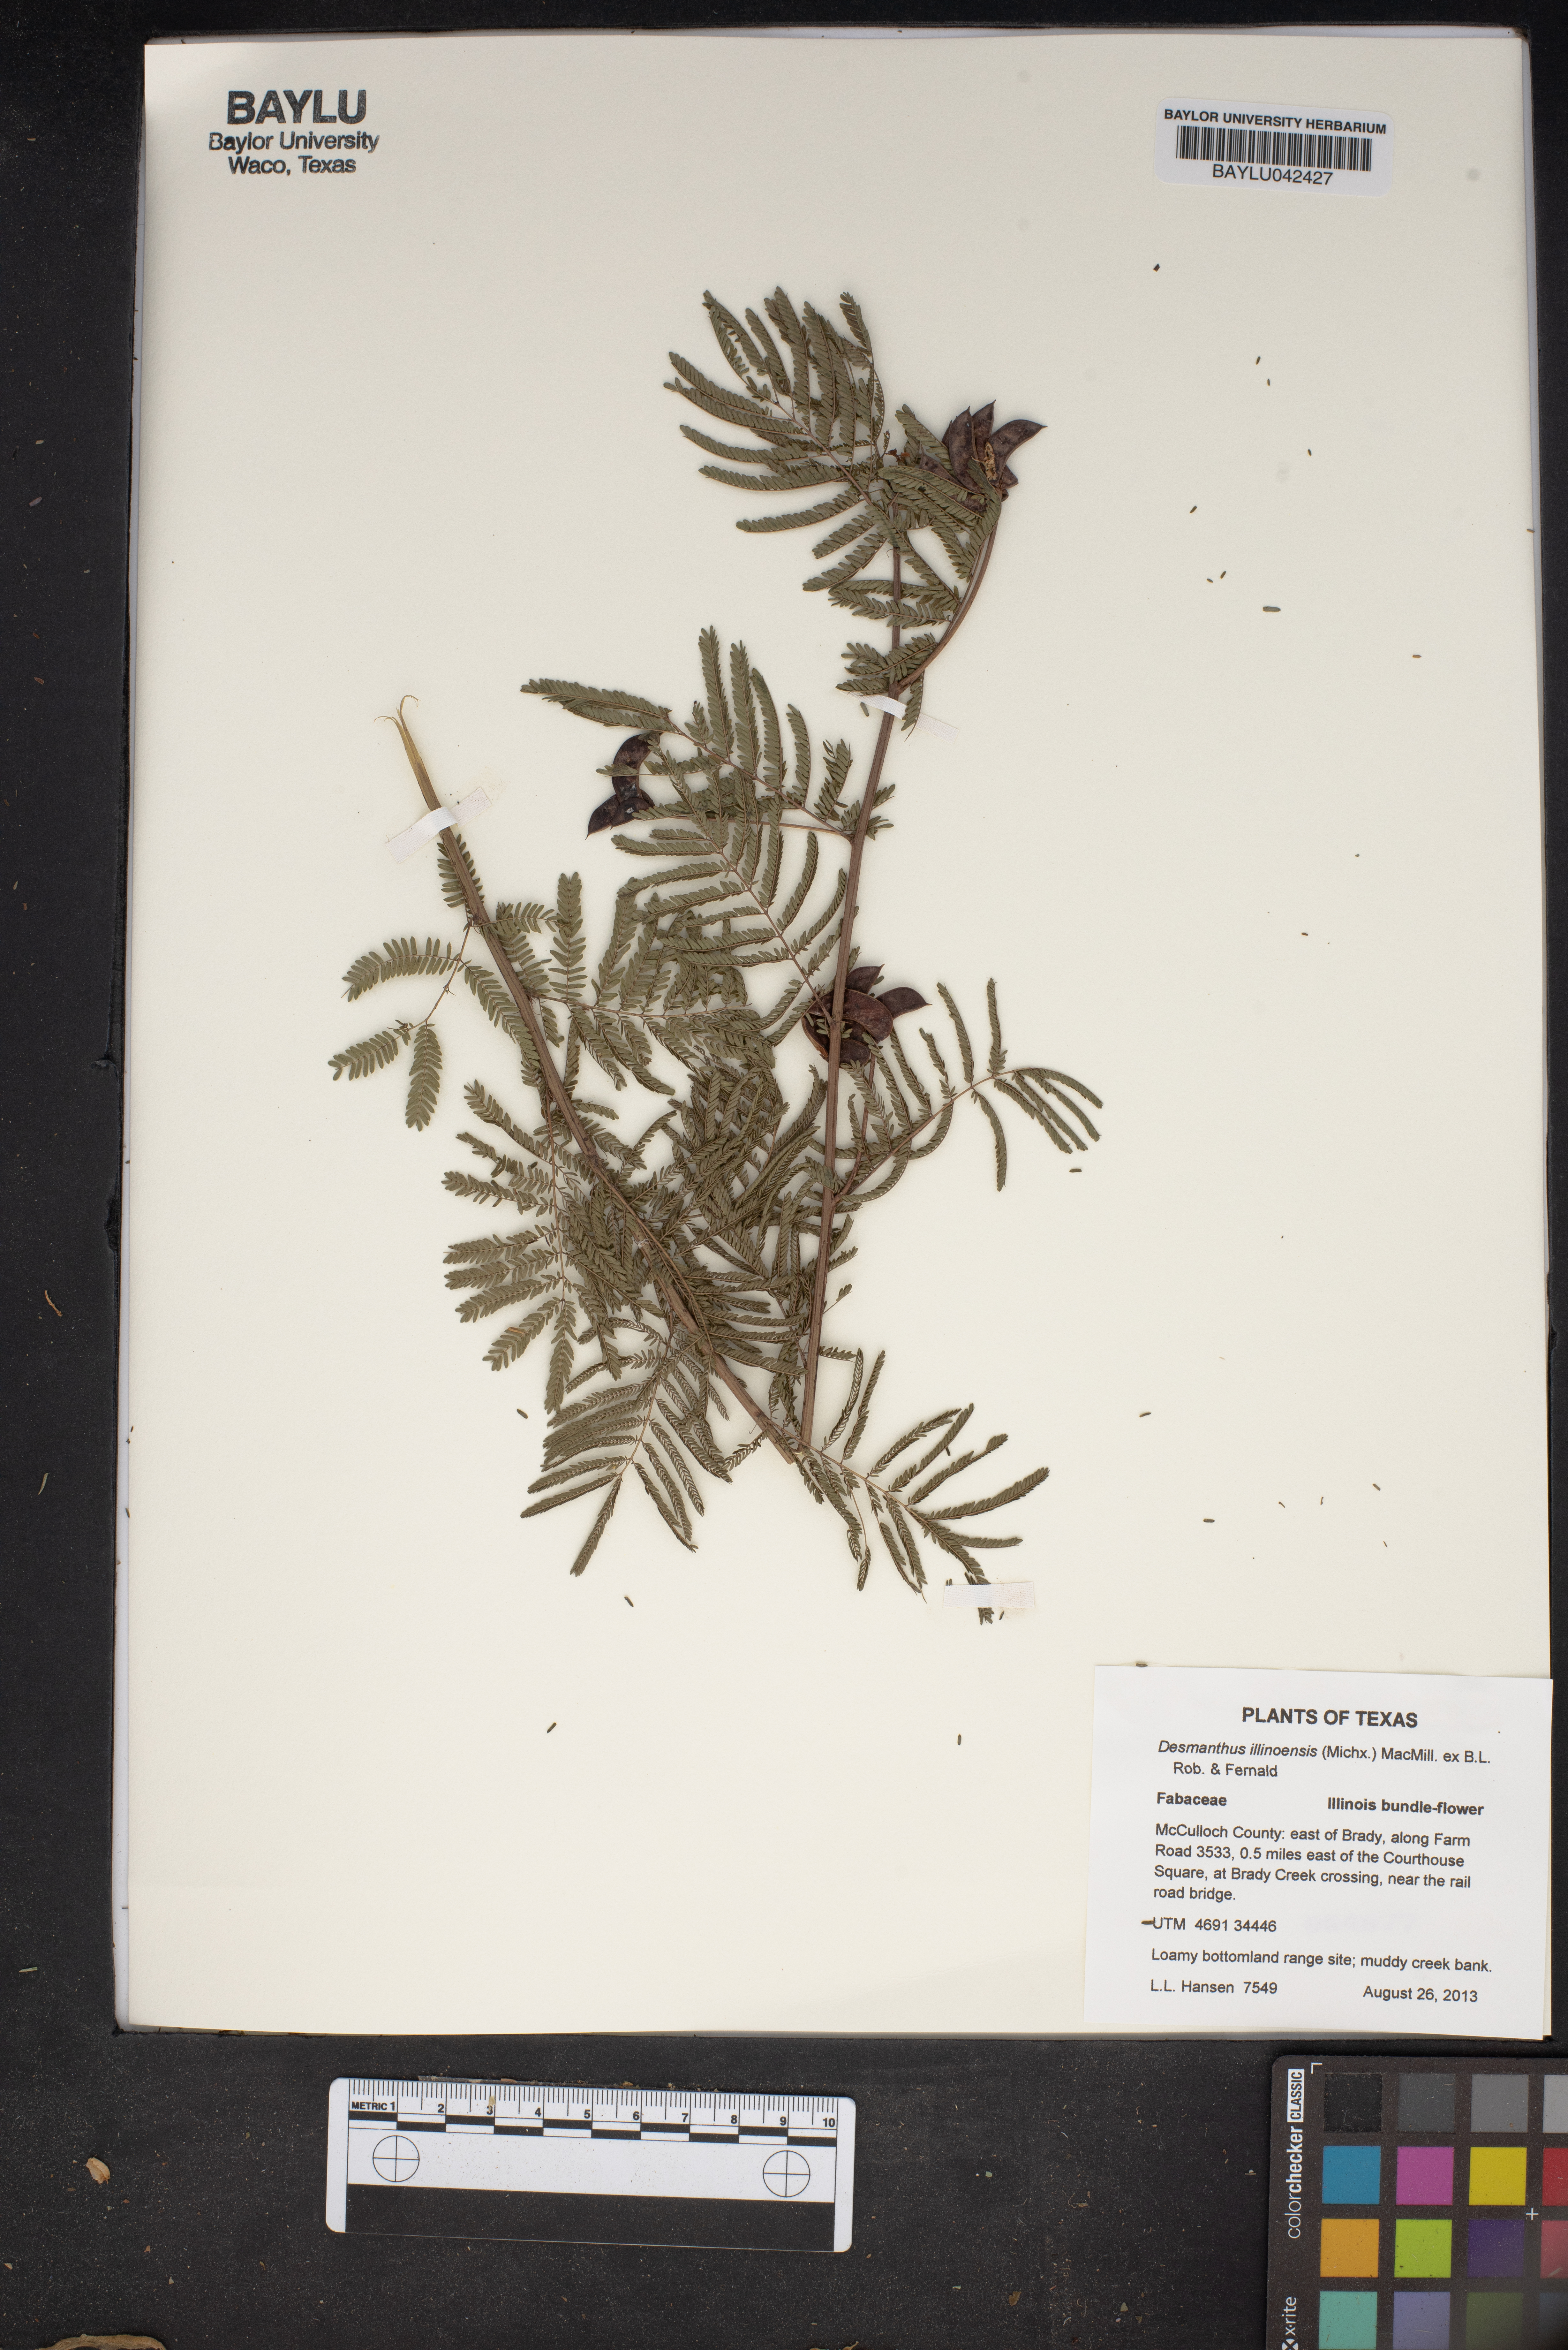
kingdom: Plantae
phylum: Tracheophyta
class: Magnoliopsida
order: Fabales
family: Fabaceae
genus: Desmanthus
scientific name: Desmanthus illinoensis
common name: Illinois bundle-flower
